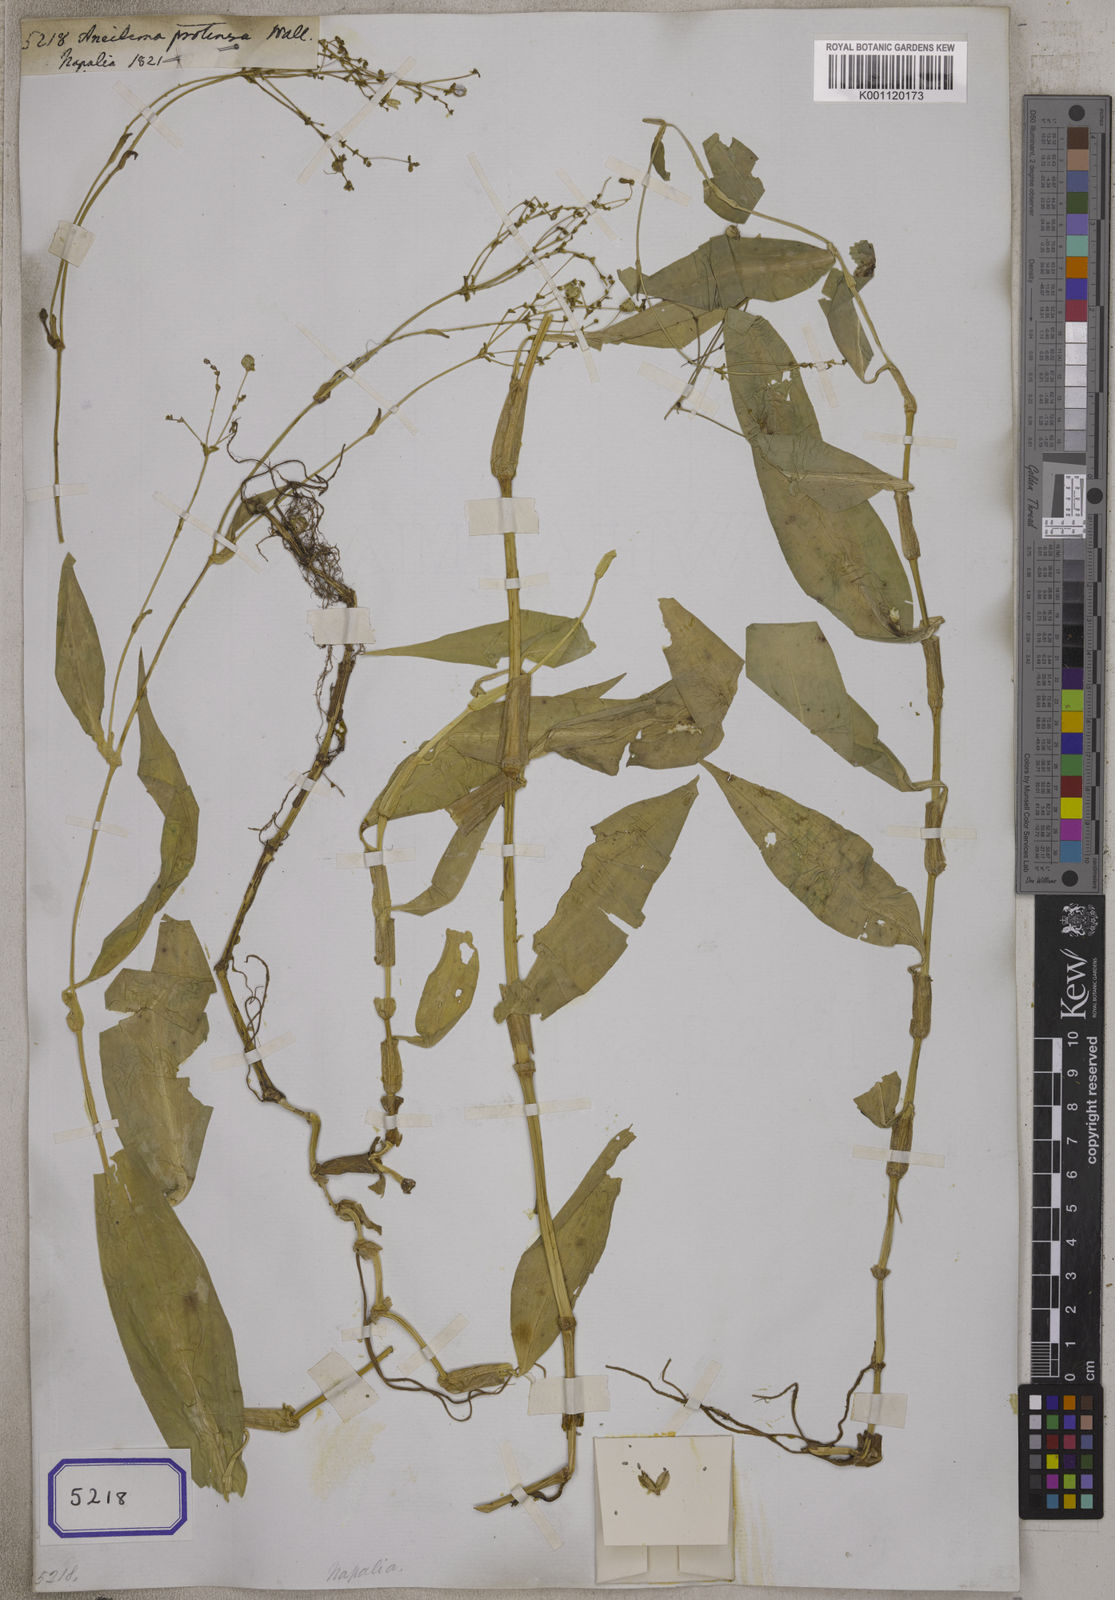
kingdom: Plantae
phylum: Tracheophyta
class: Liliopsida
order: Commelinales
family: Commelinaceae
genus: Aneilema
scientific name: Aneilema
